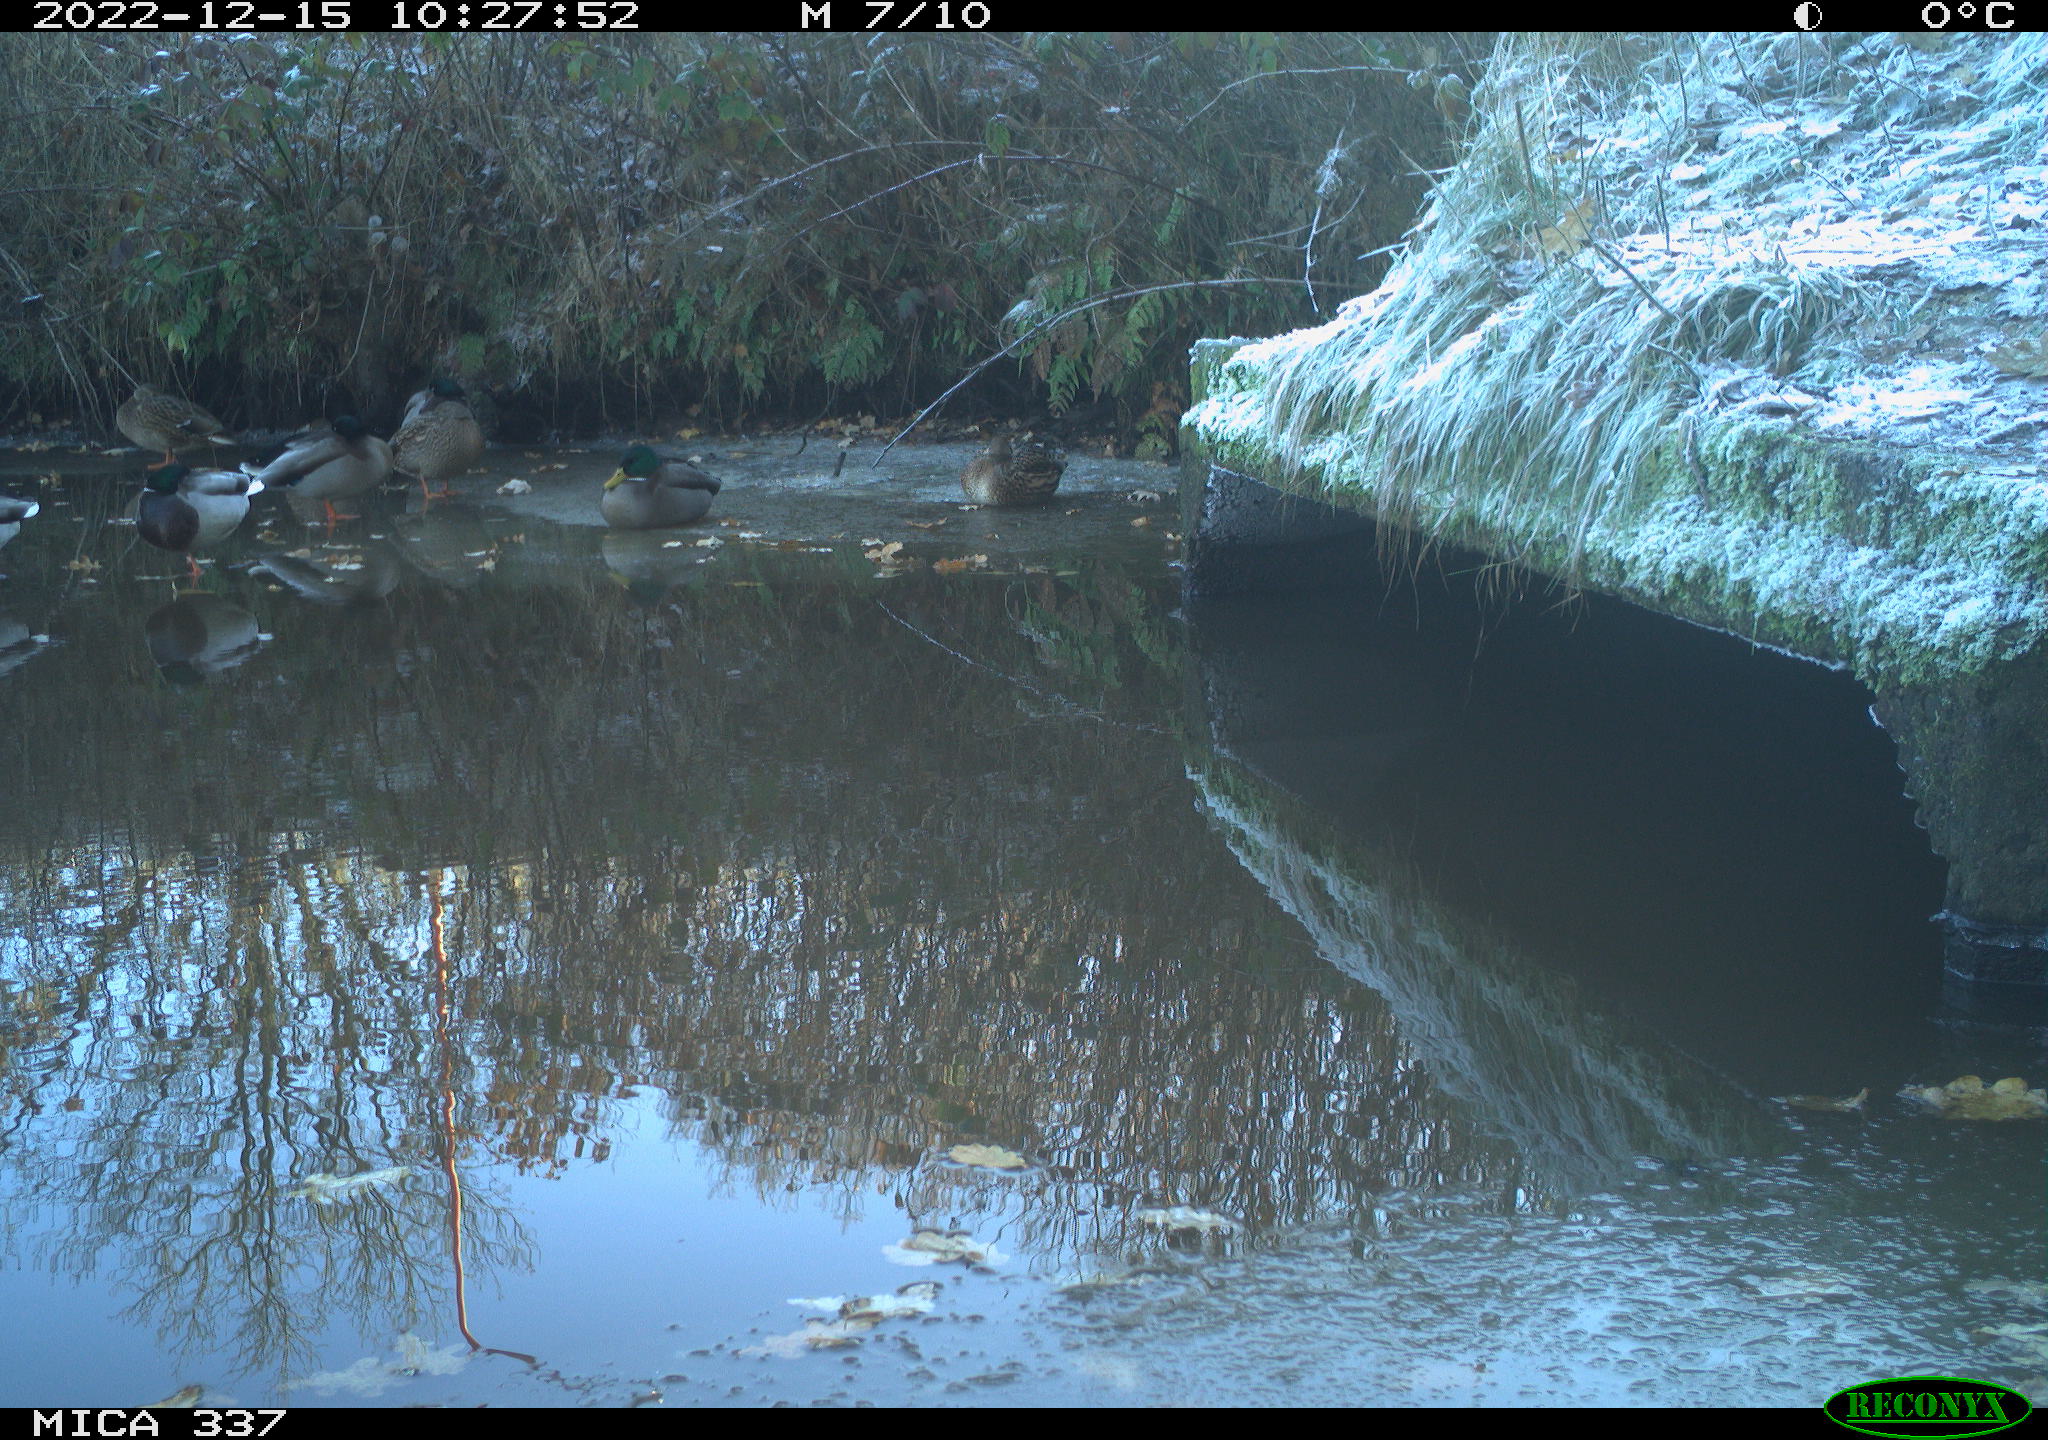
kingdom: Animalia
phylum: Chordata
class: Aves
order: Anseriformes
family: Anatidae
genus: Anas
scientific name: Anas
